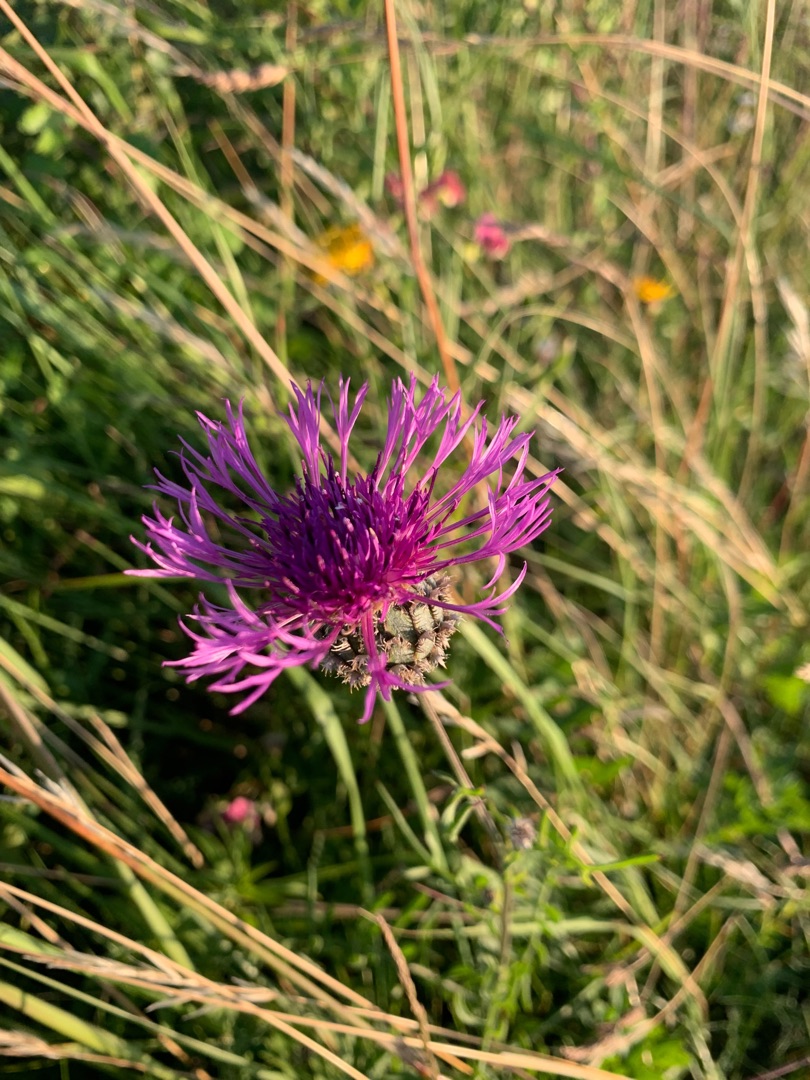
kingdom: Plantae
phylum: Tracheophyta
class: Magnoliopsida
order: Asterales
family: Asteraceae
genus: Centaurea
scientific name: Centaurea scabiosa
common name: Stor knopurt
